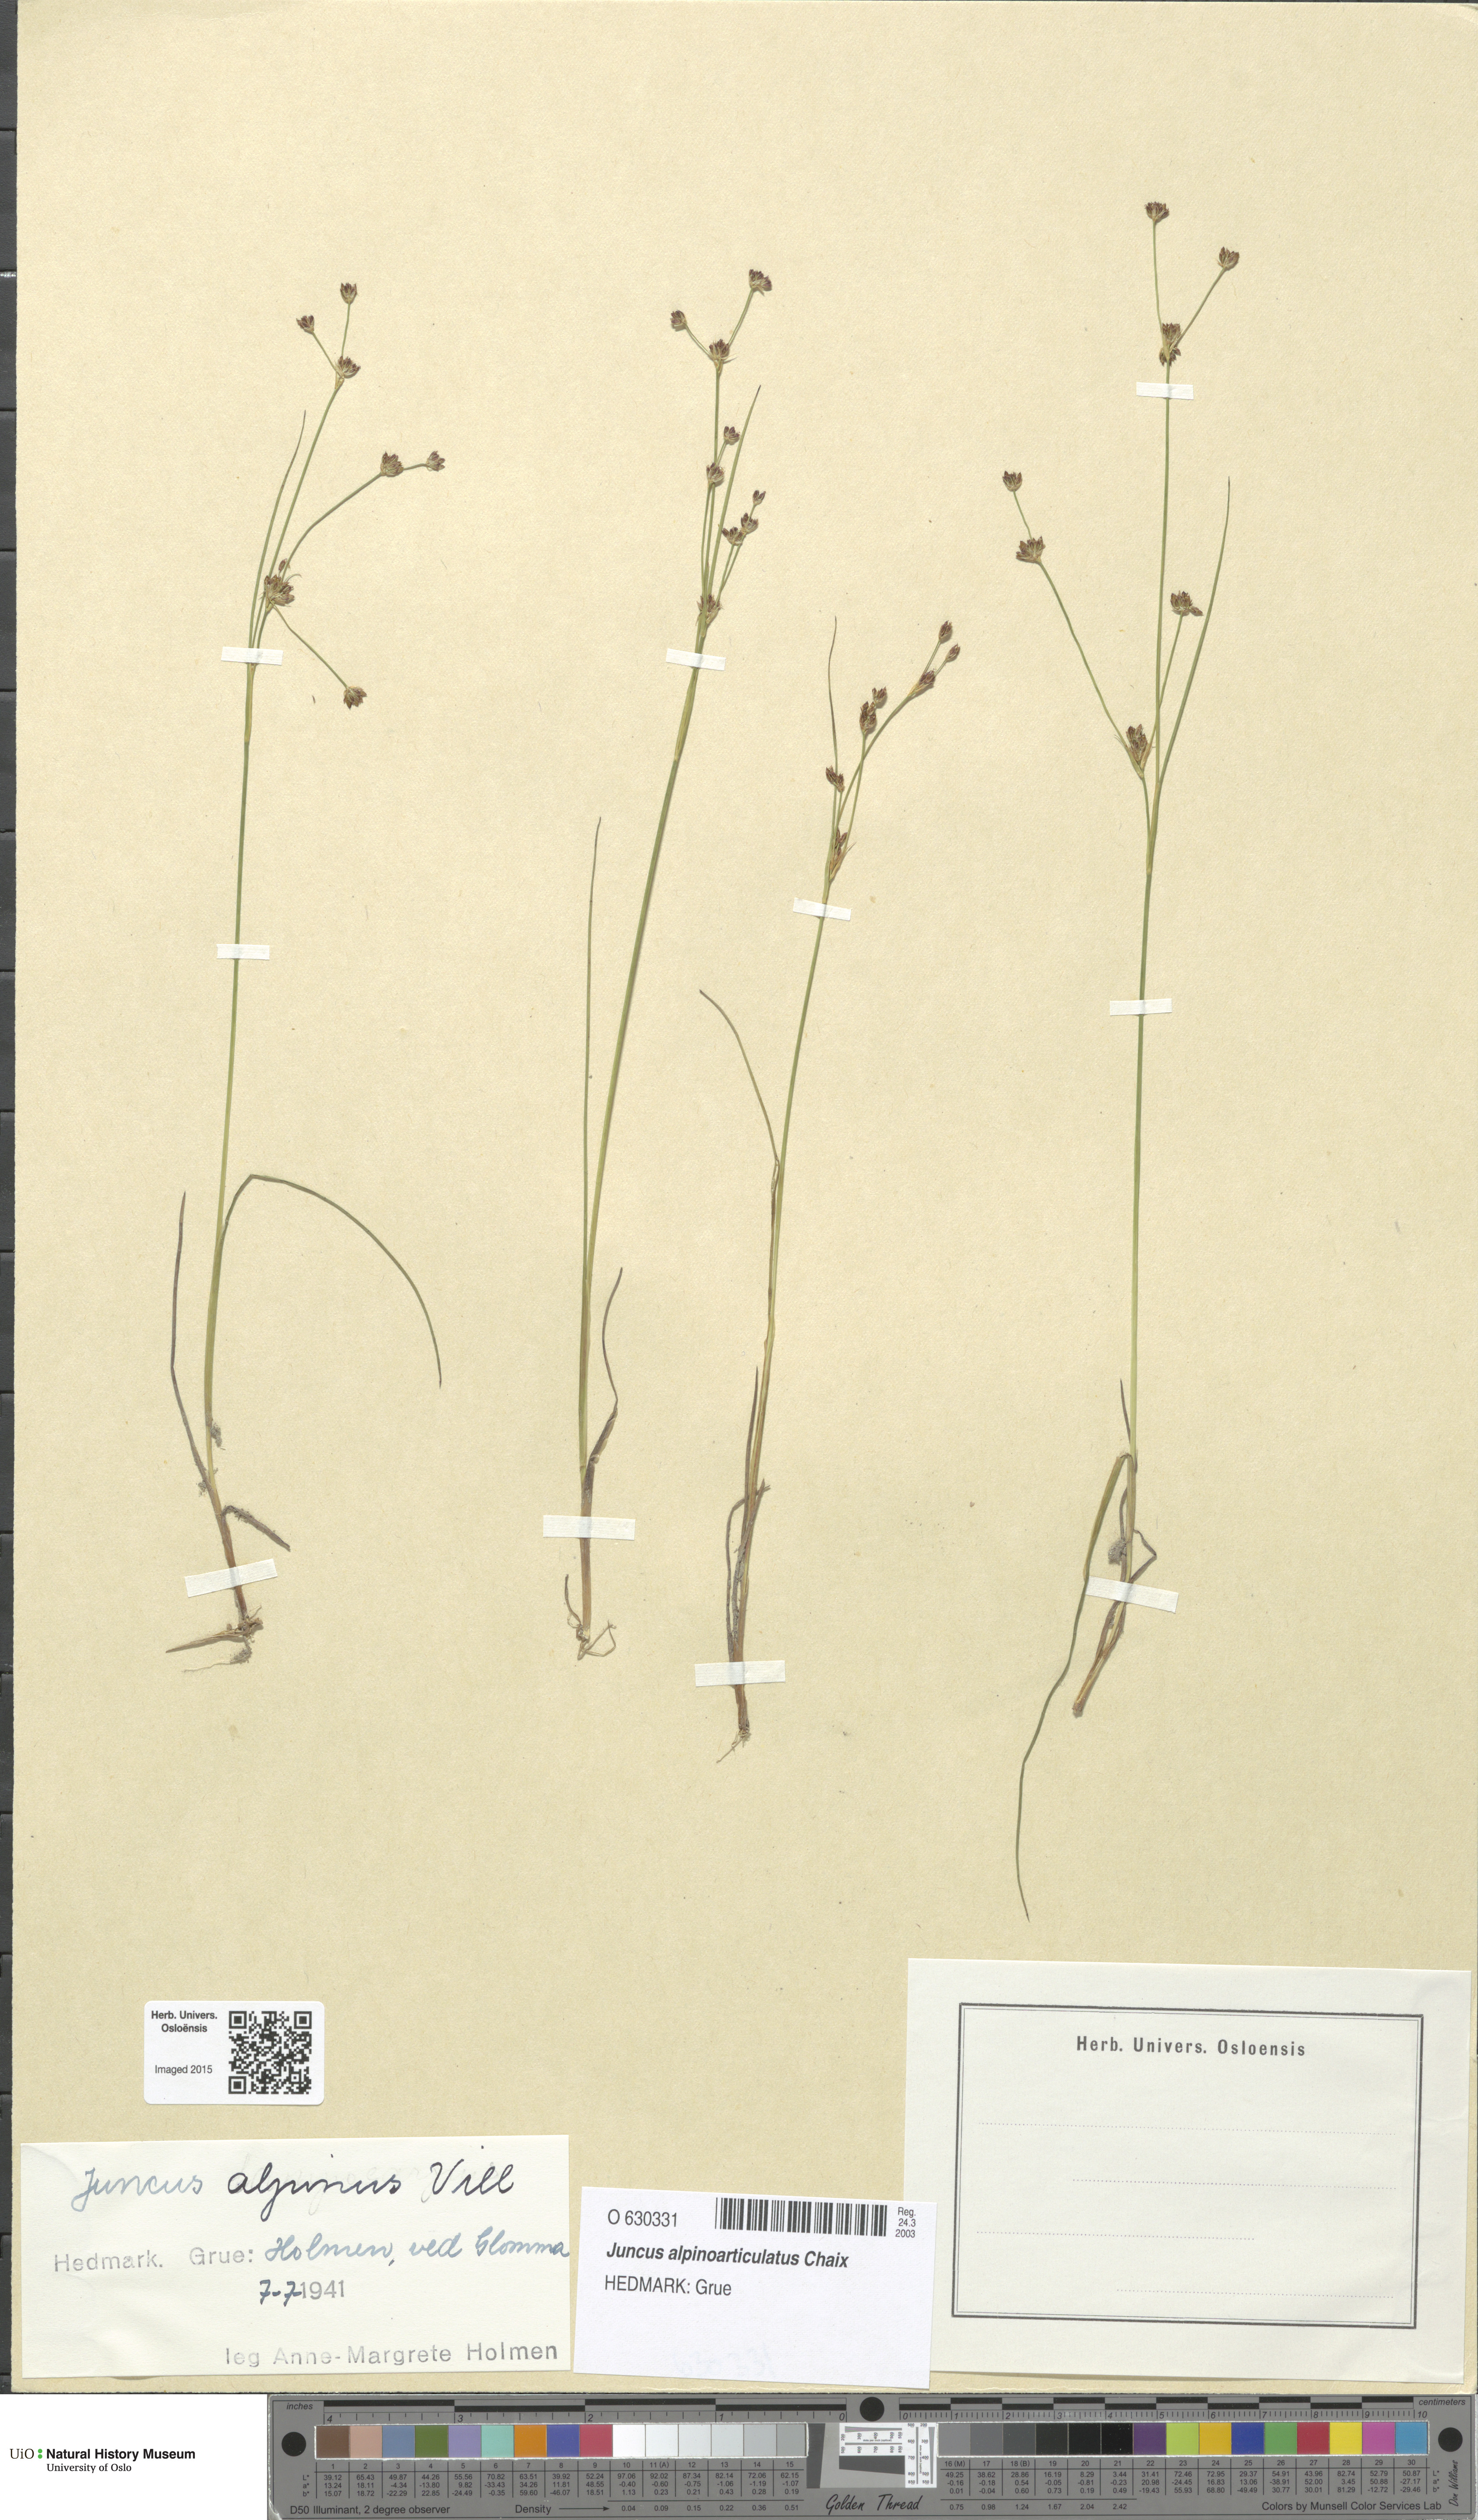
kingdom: Plantae
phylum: Tracheophyta
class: Liliopsida
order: Poales
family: Juncaceae
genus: Juncus
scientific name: Juncus alpinoarticulatus
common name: Alpine rush
